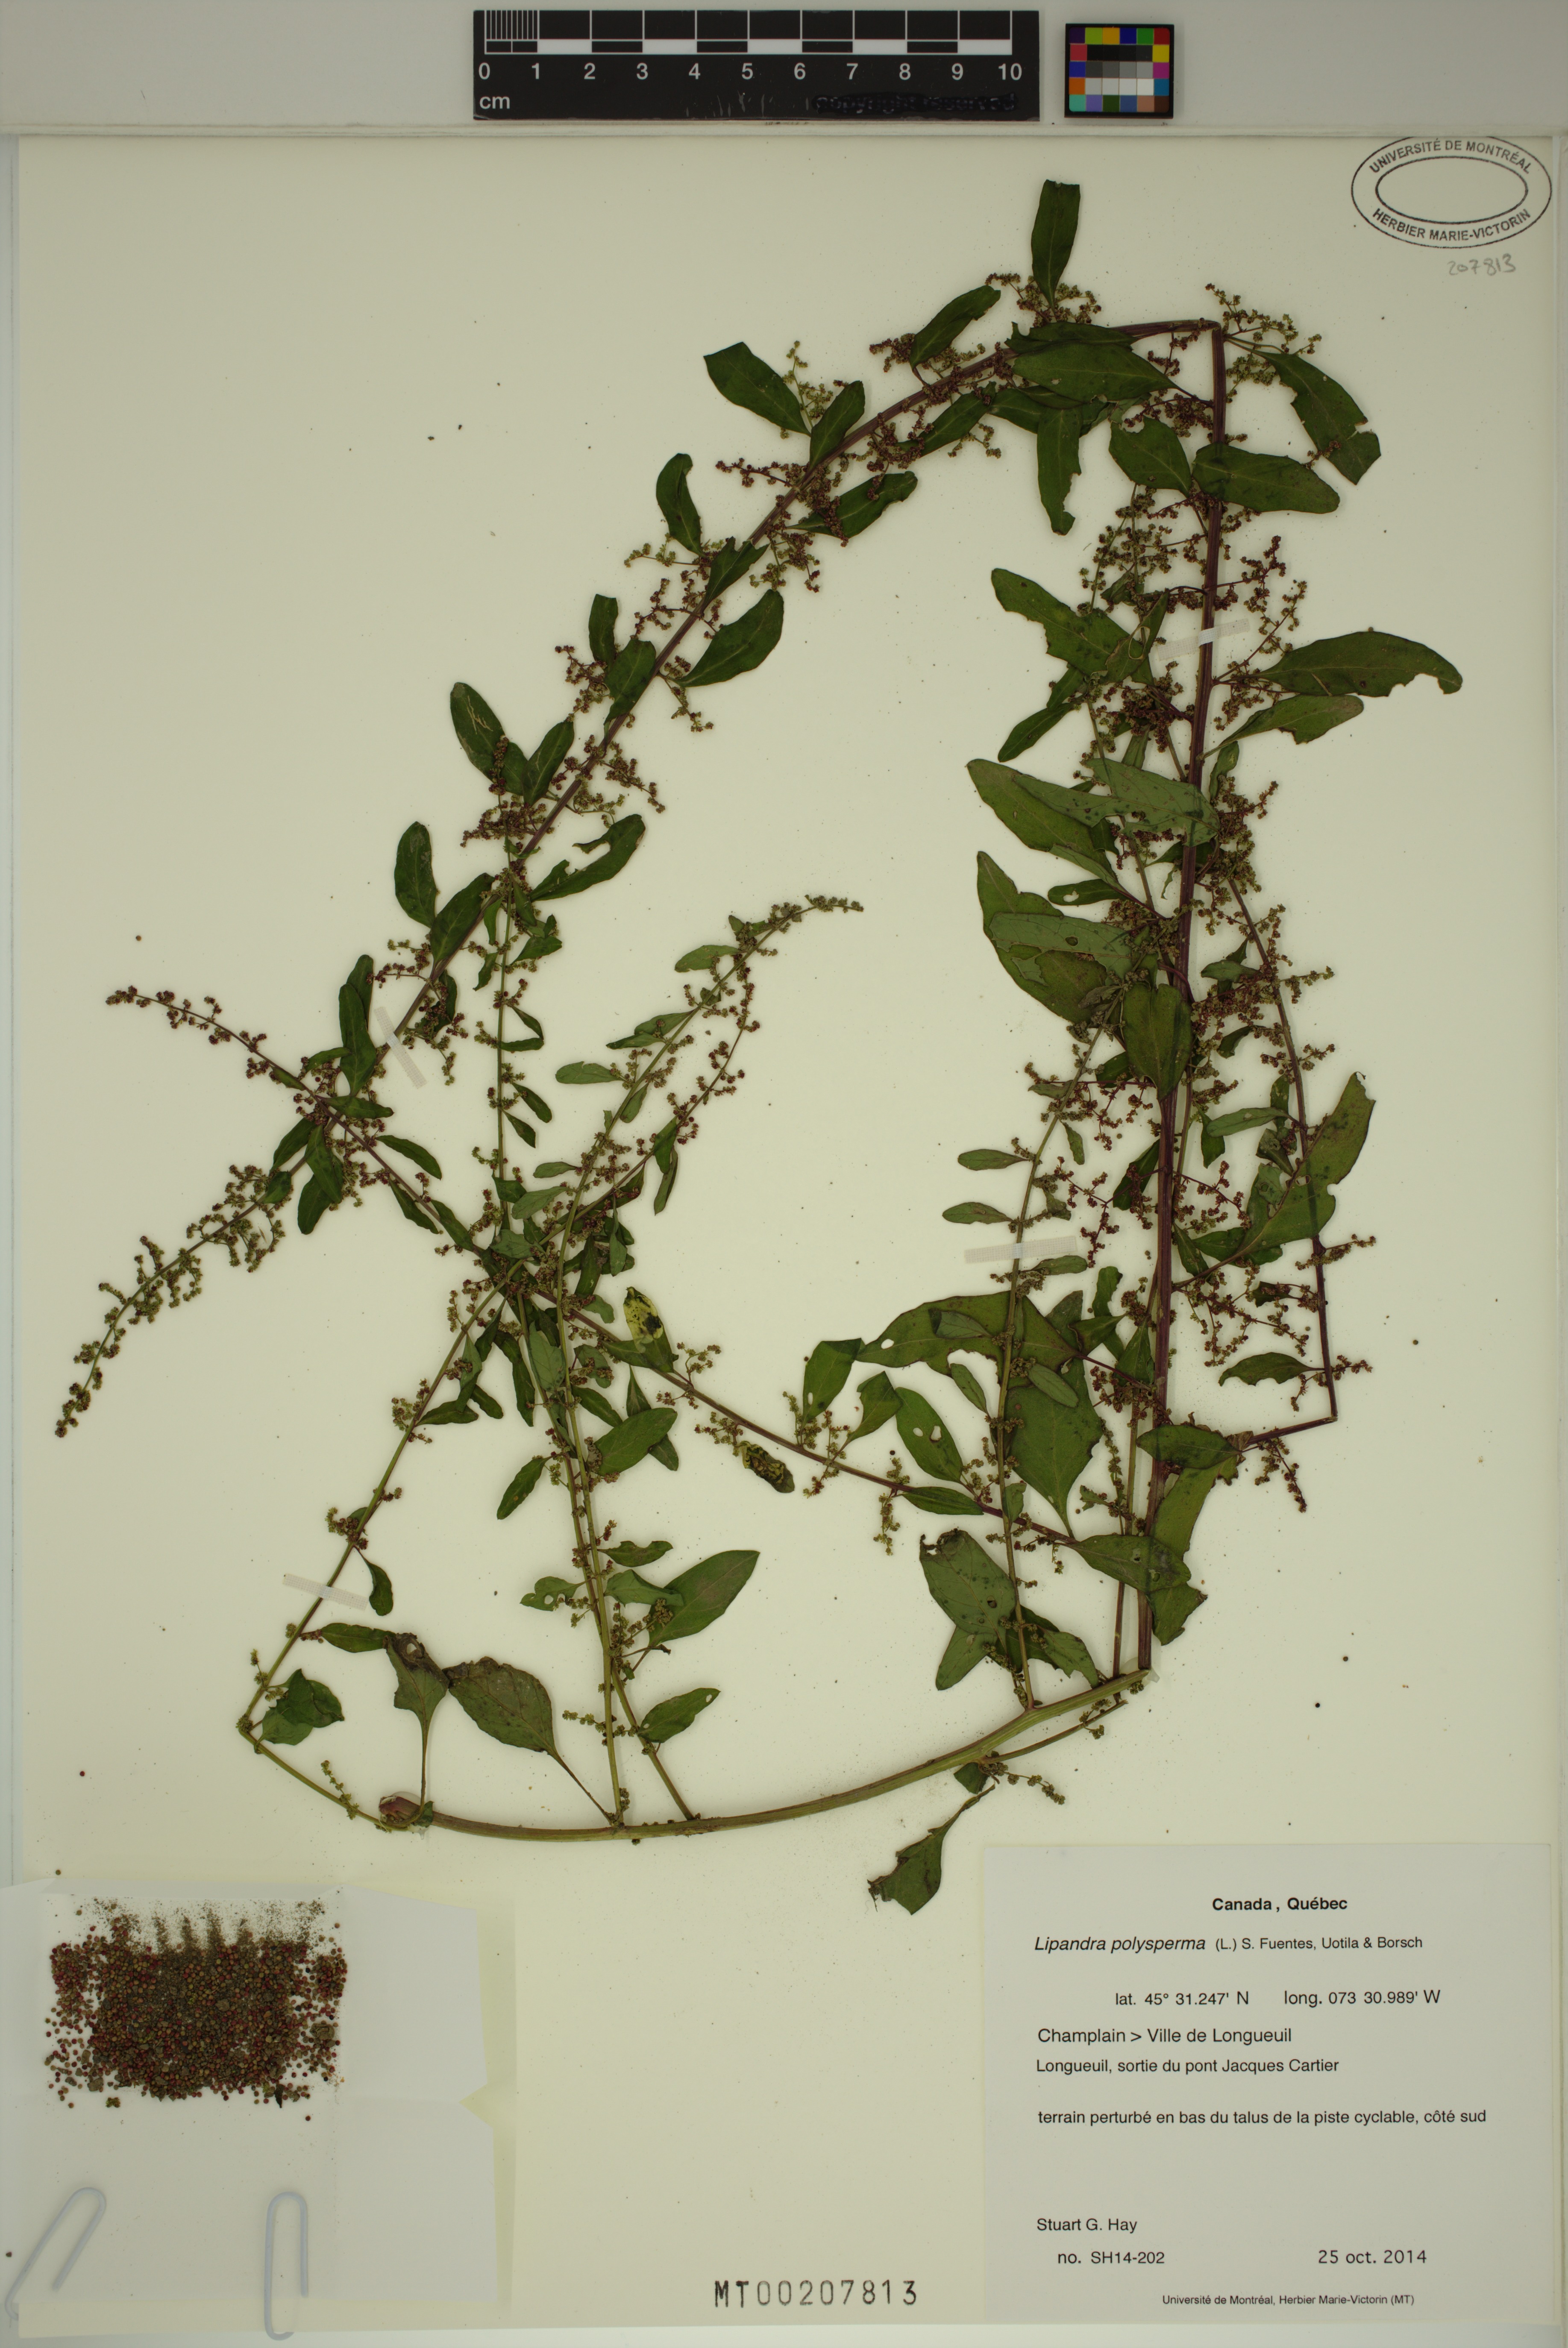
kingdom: Plantae
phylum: Tracheophyta
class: Magnoliopsida
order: Caryophyllales
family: Amaranthaceae
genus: Lipandra
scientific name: Lipandra polysperma
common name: Many-seed goosefoot
